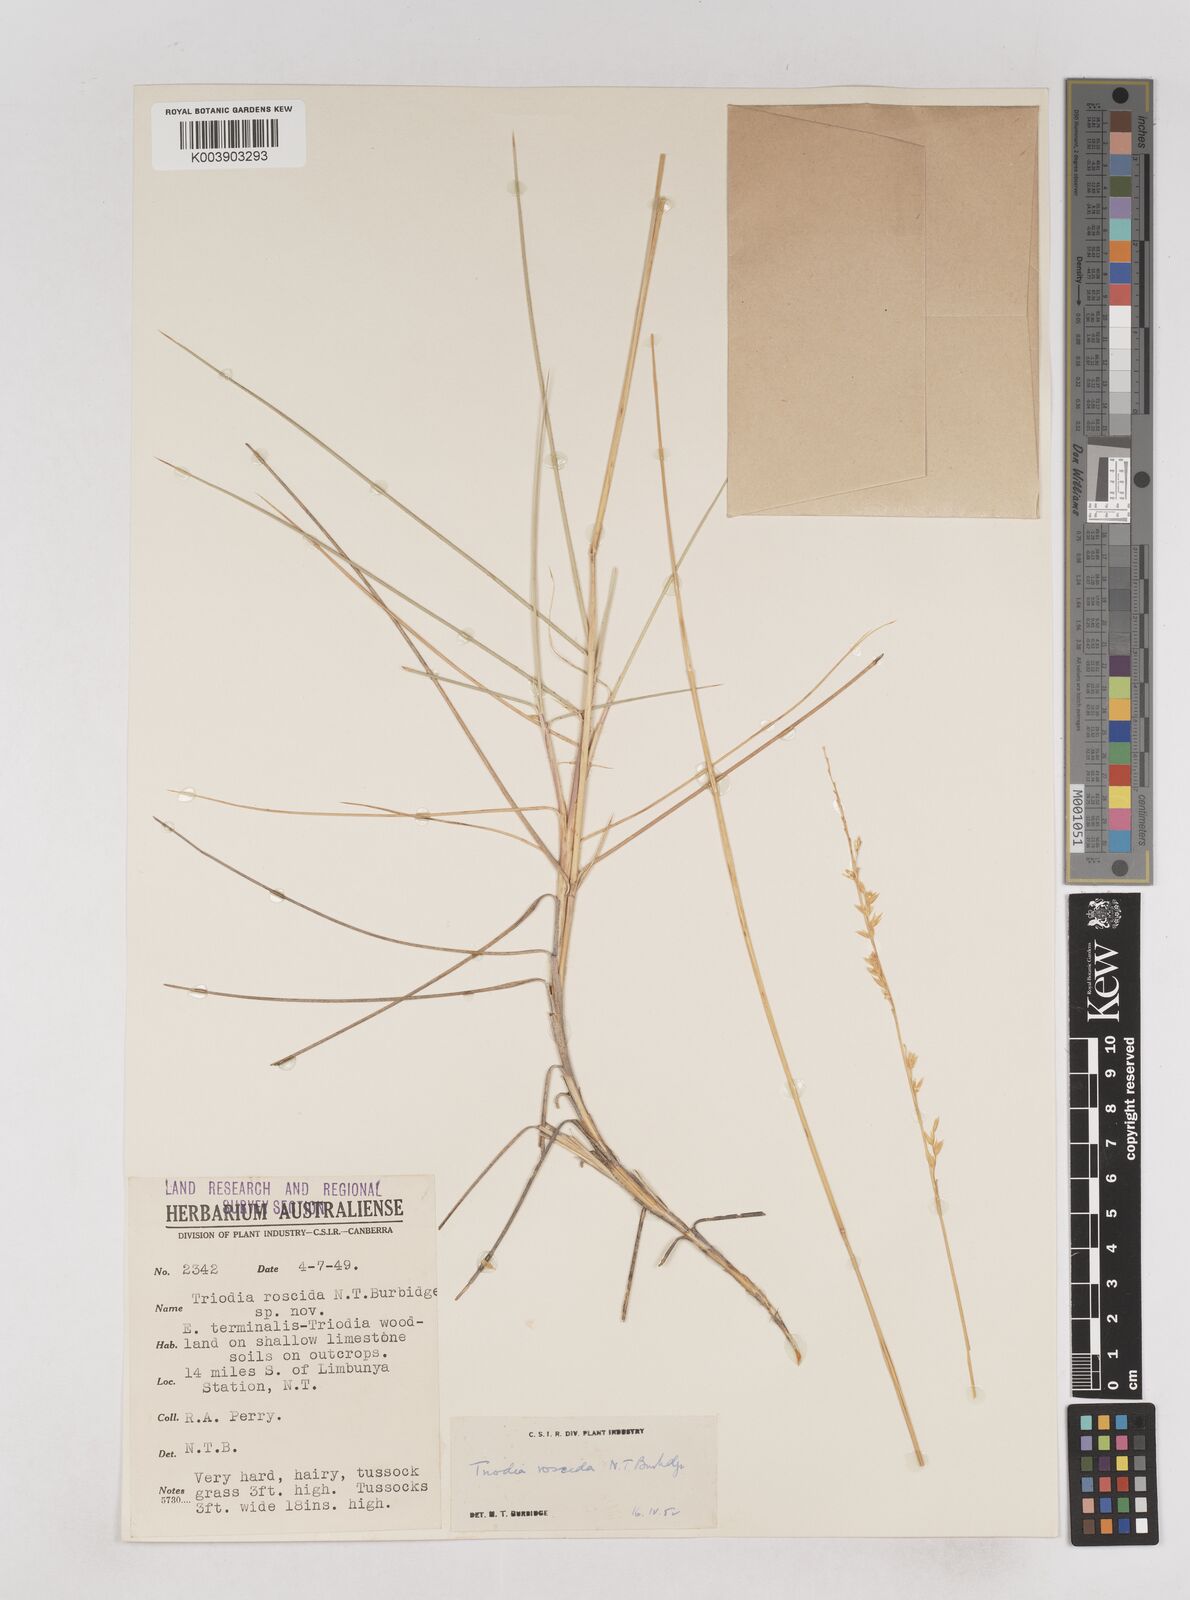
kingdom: Plantae
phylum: Tracheophyta
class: Liliopsida
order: Poales
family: Poaceae
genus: Triodia
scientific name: Triodia roscida
